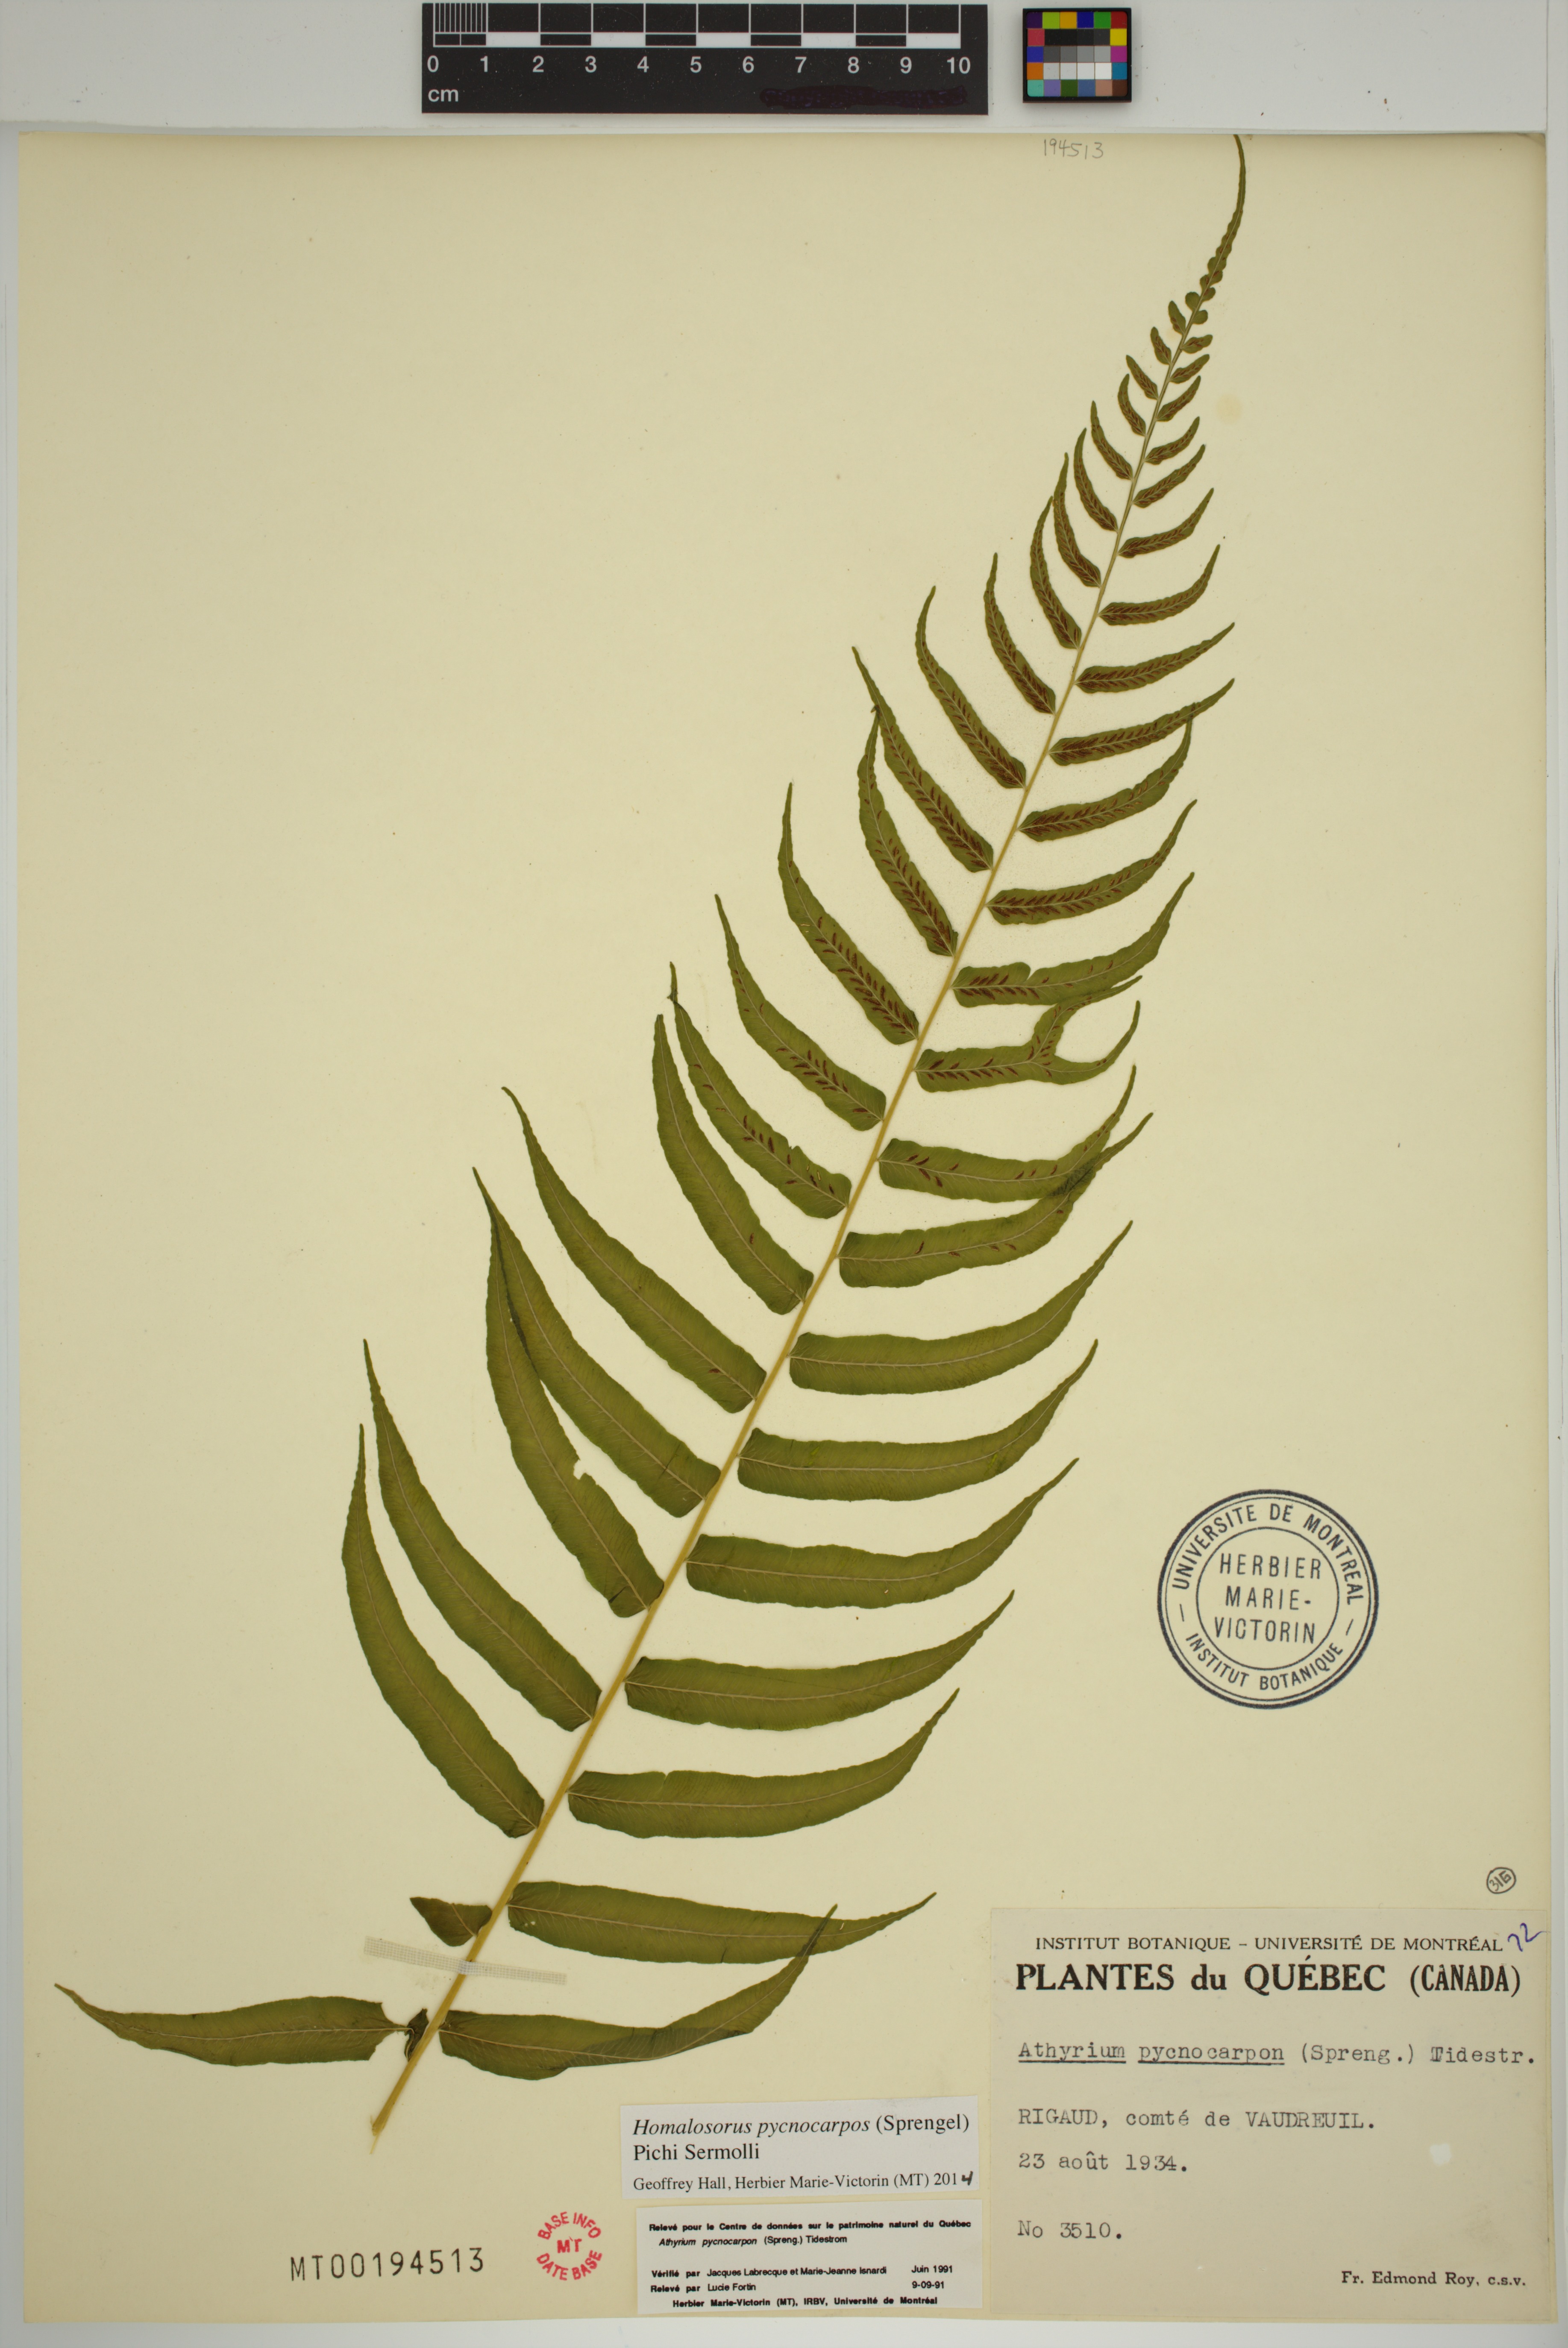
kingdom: Plantae
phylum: Tracheophyta
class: Polypodiopsida
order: Polypodiales
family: Diplaziopsidaceae
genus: Homalosorus
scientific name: Homalosorus pycnocarpos
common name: Glade fern
